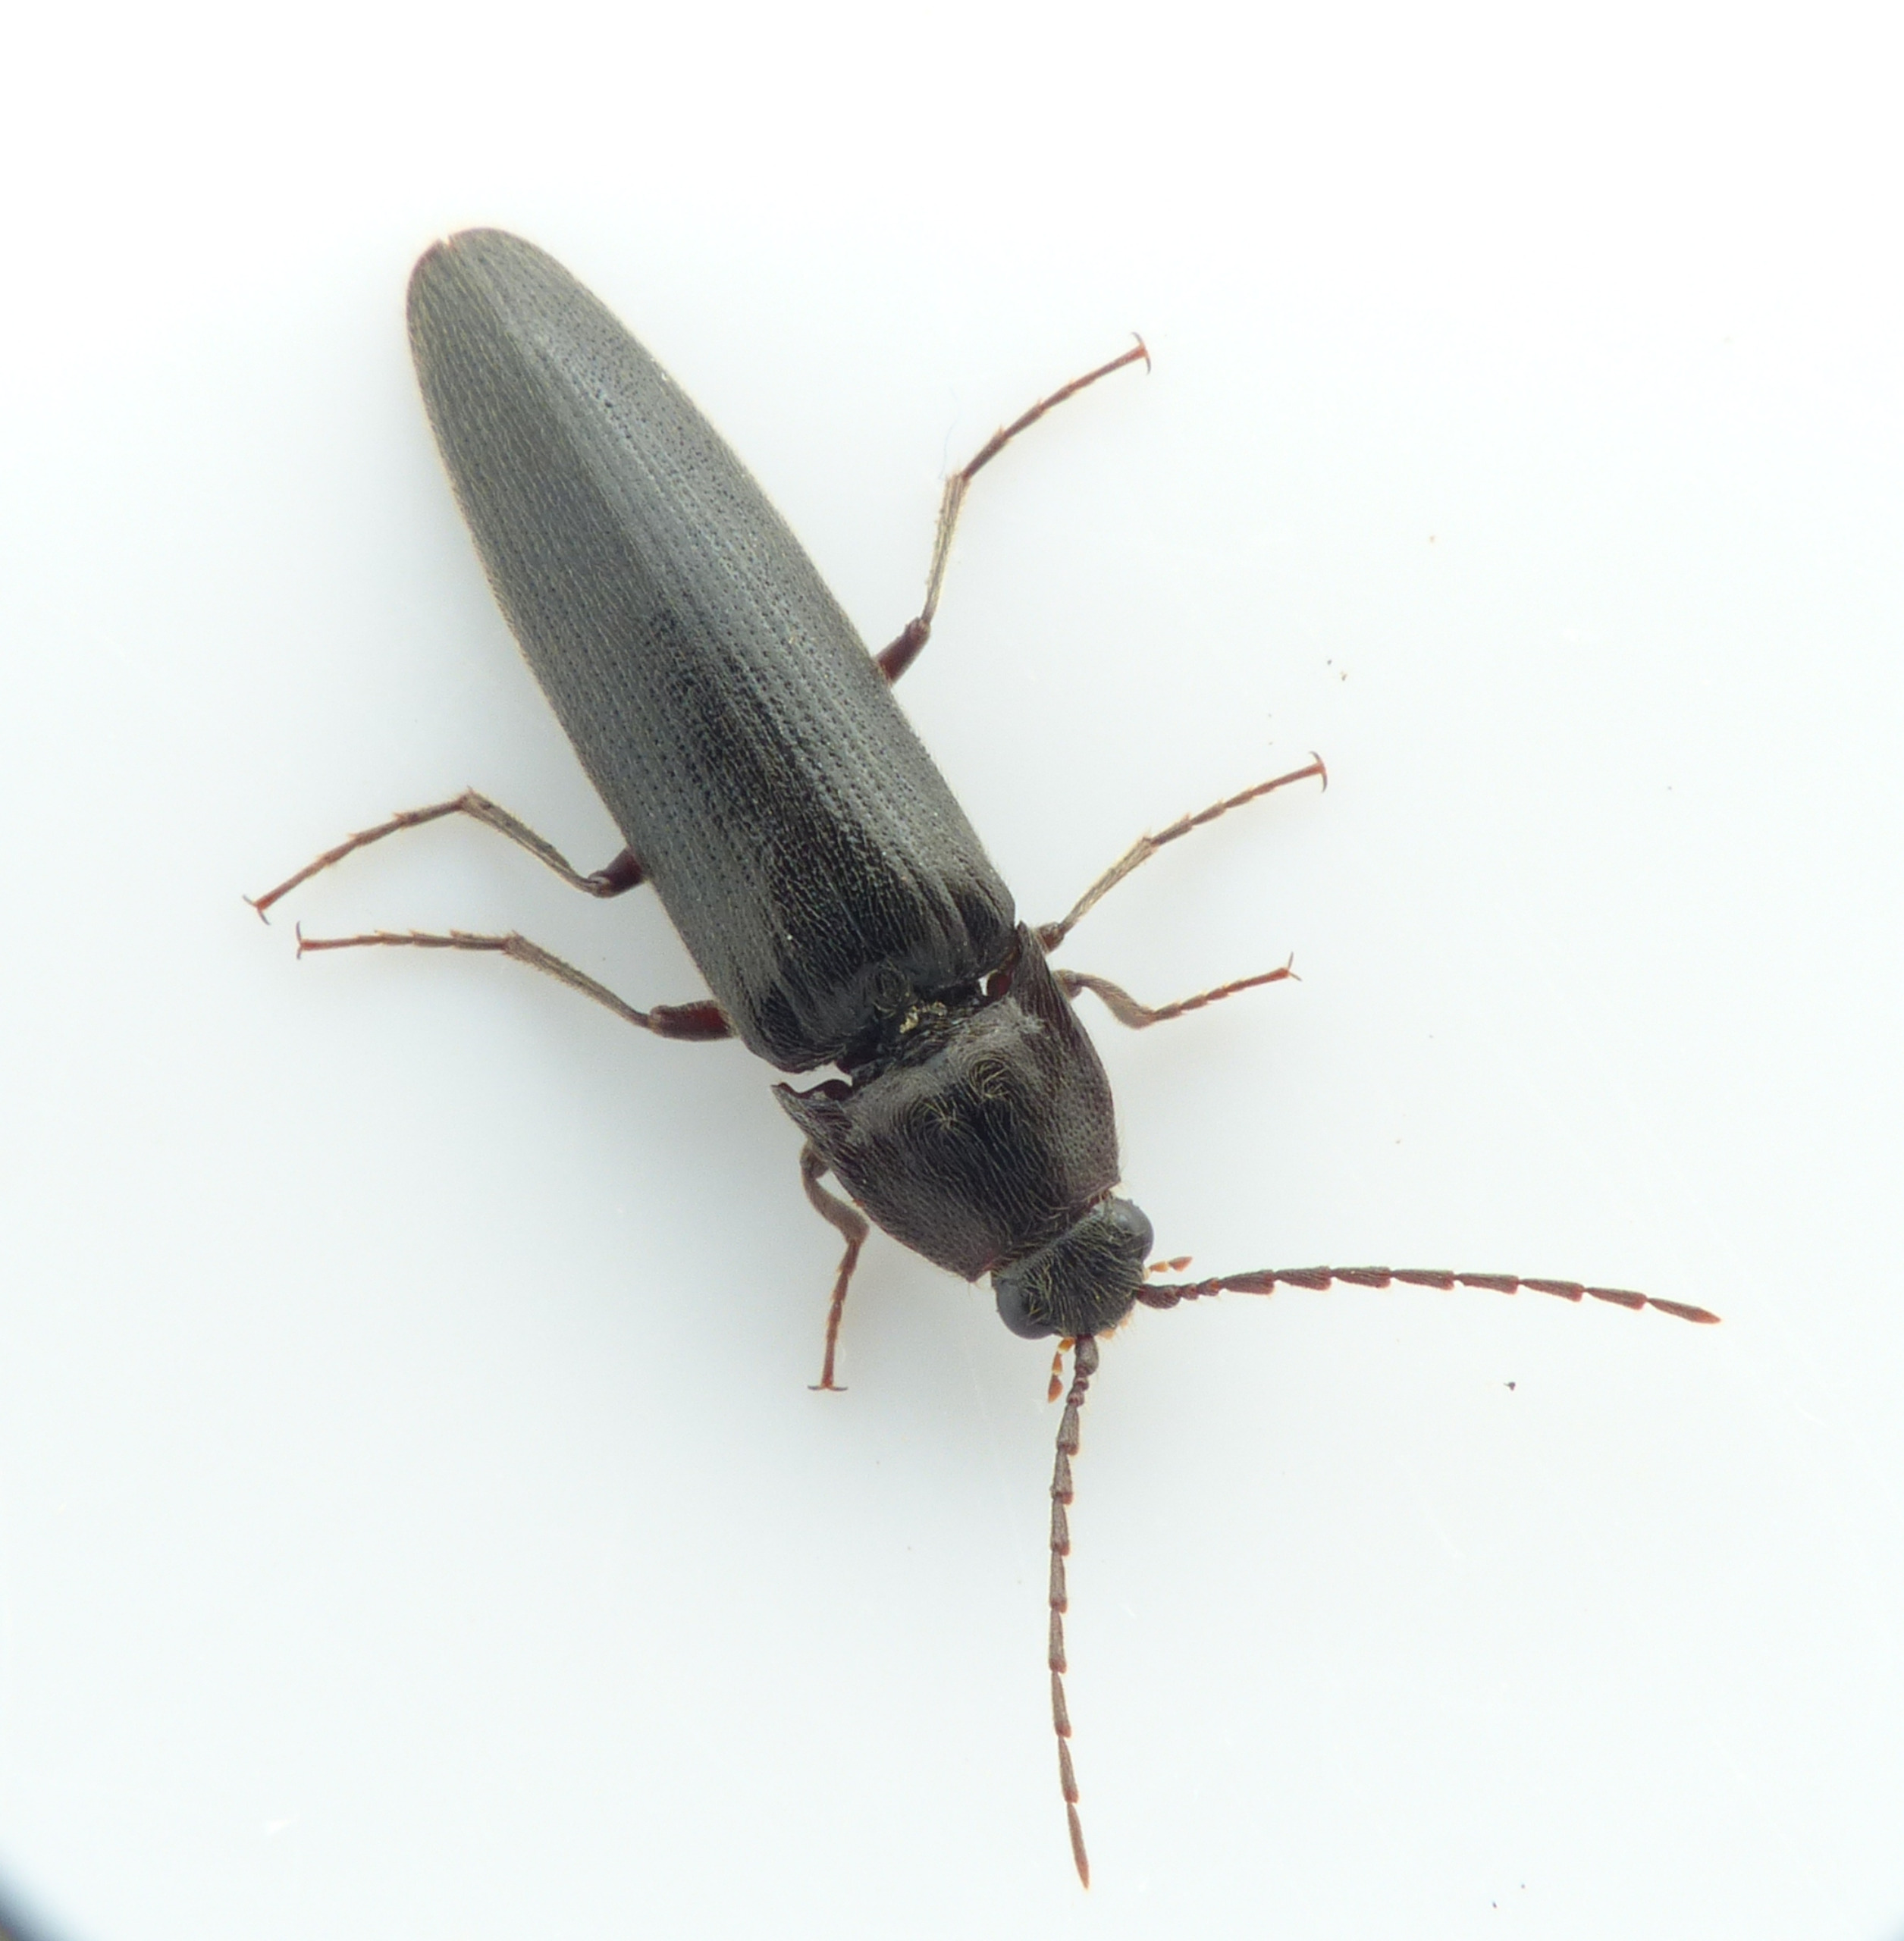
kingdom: Animalia
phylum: Arthropoda
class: Insecta
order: Coleoptera
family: Elateridae
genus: Melanotus
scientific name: Melanotus castanipes
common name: Stor sortsmælder
